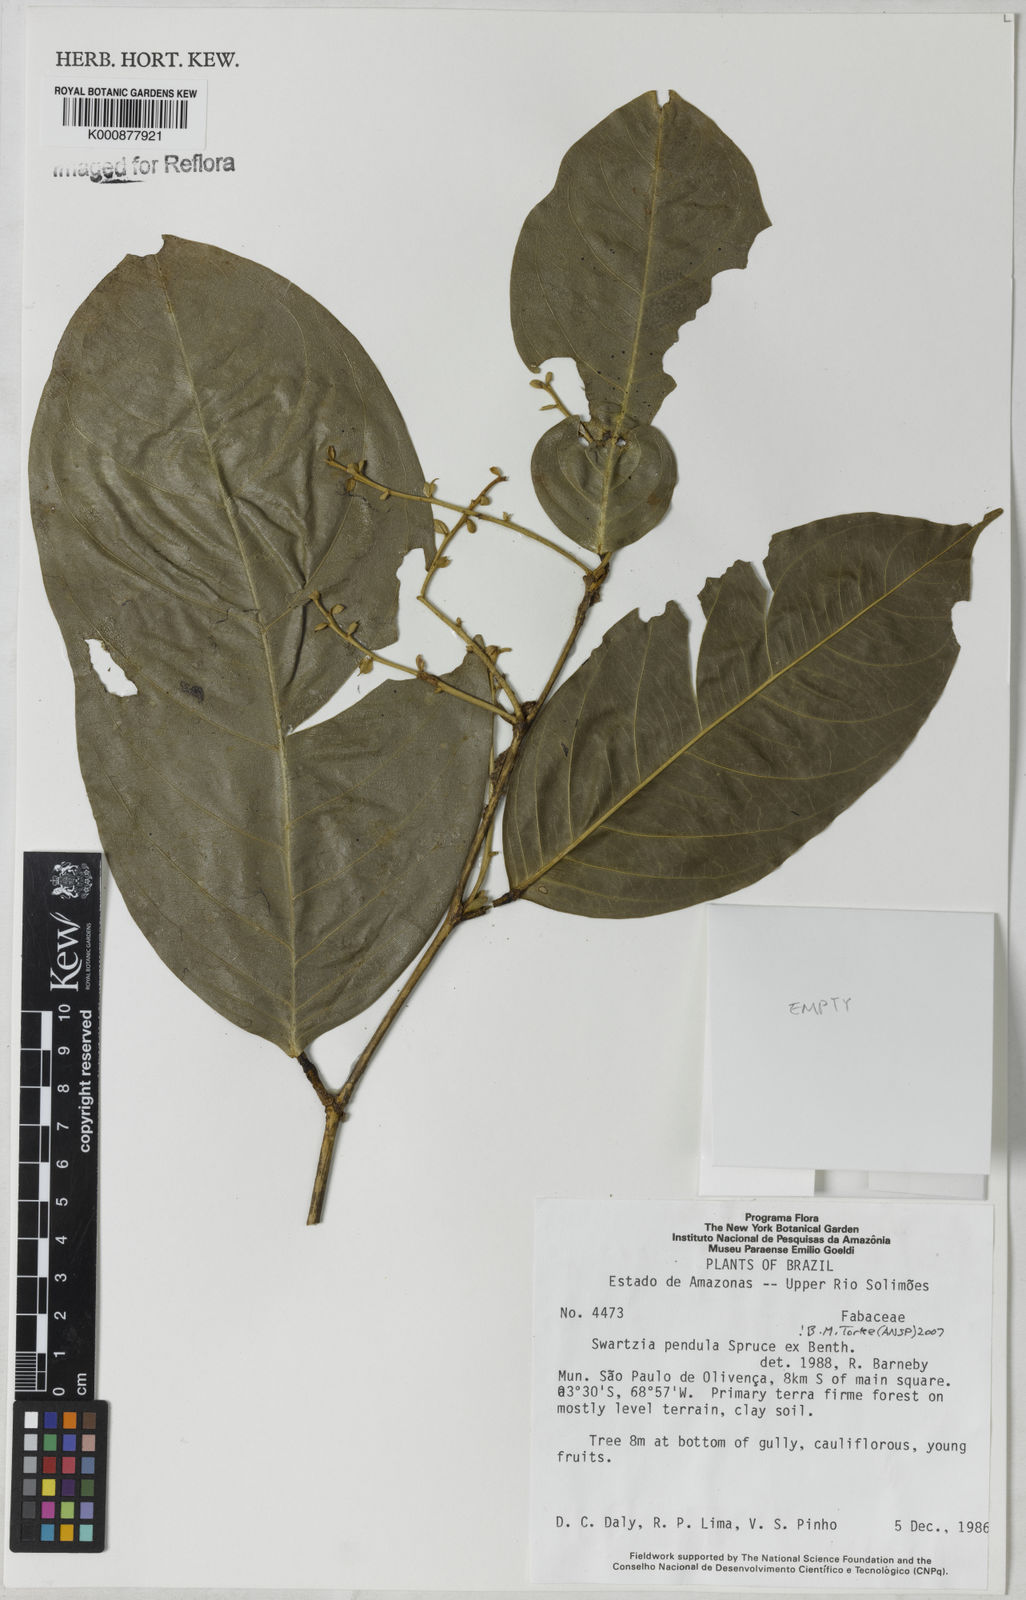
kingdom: Plantae
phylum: Tracheophyta
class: Magnoliopsida
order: Fabales
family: Fabaceae
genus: Swartzia
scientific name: Swartzia pendula
